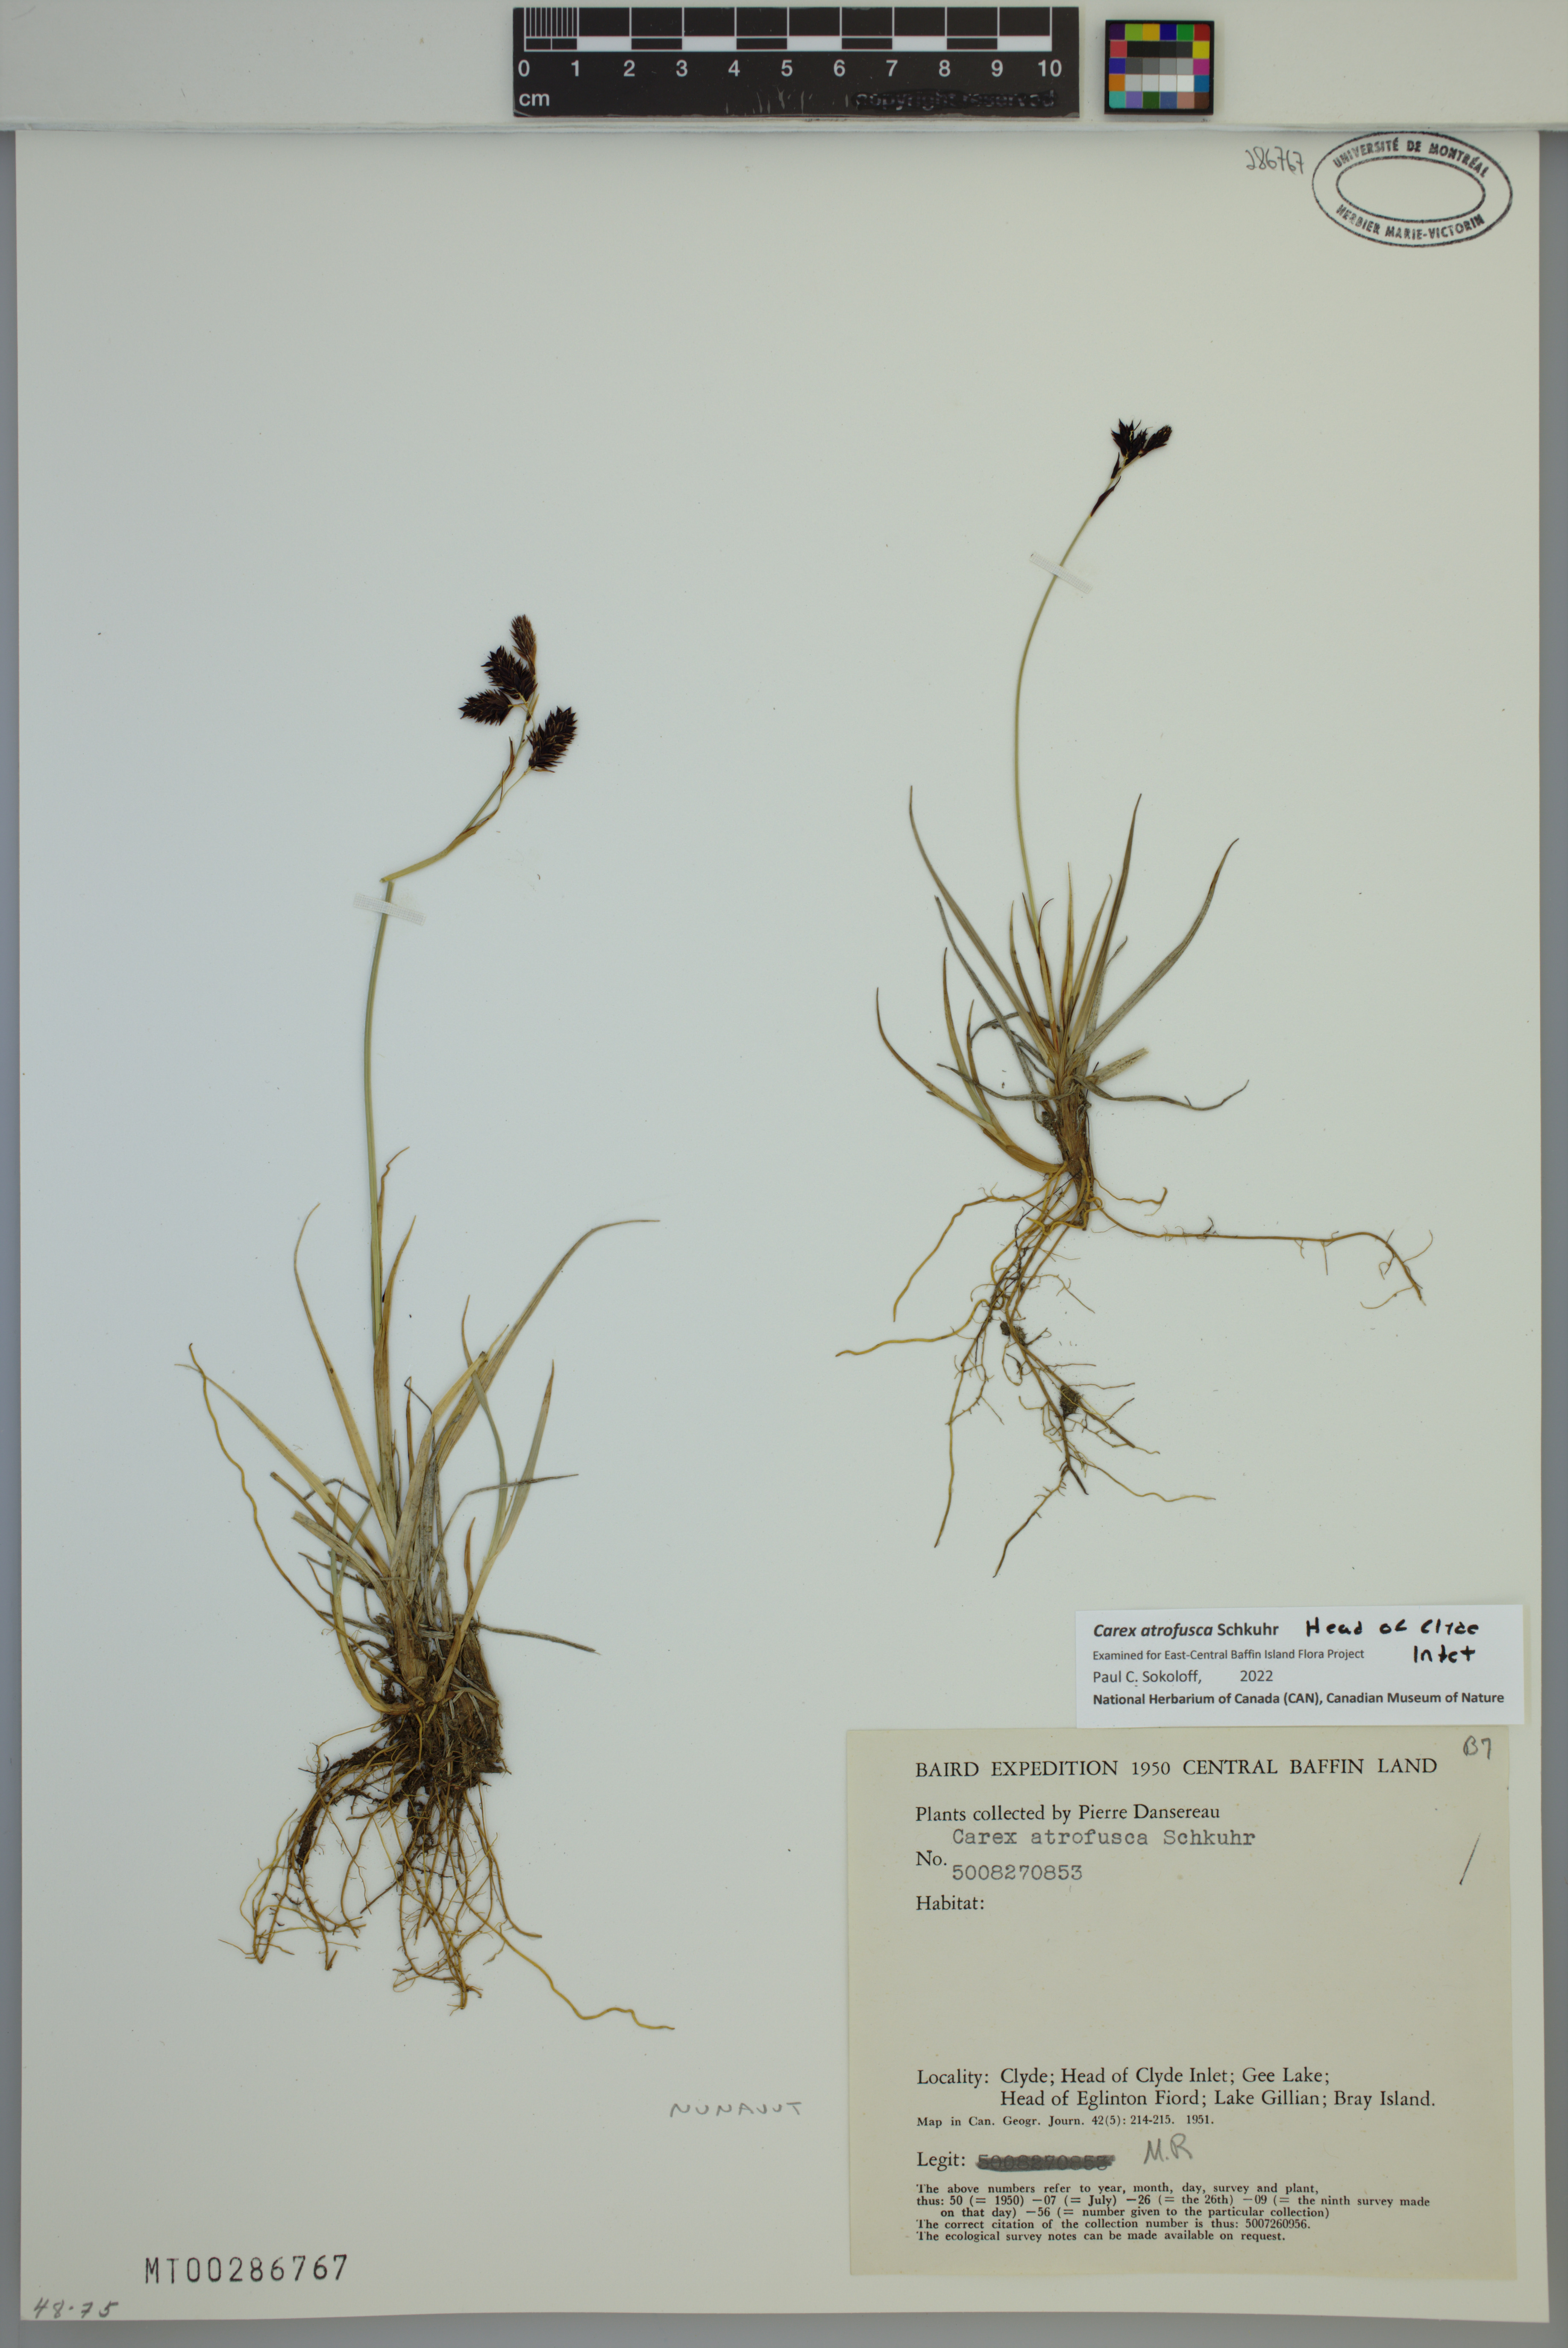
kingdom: Plantae
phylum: Tracheophyta
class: Liliopsida
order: Poales
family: Cyperaceae
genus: Carex
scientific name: Carex atrofusca
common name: Scorched alpine-sedge
